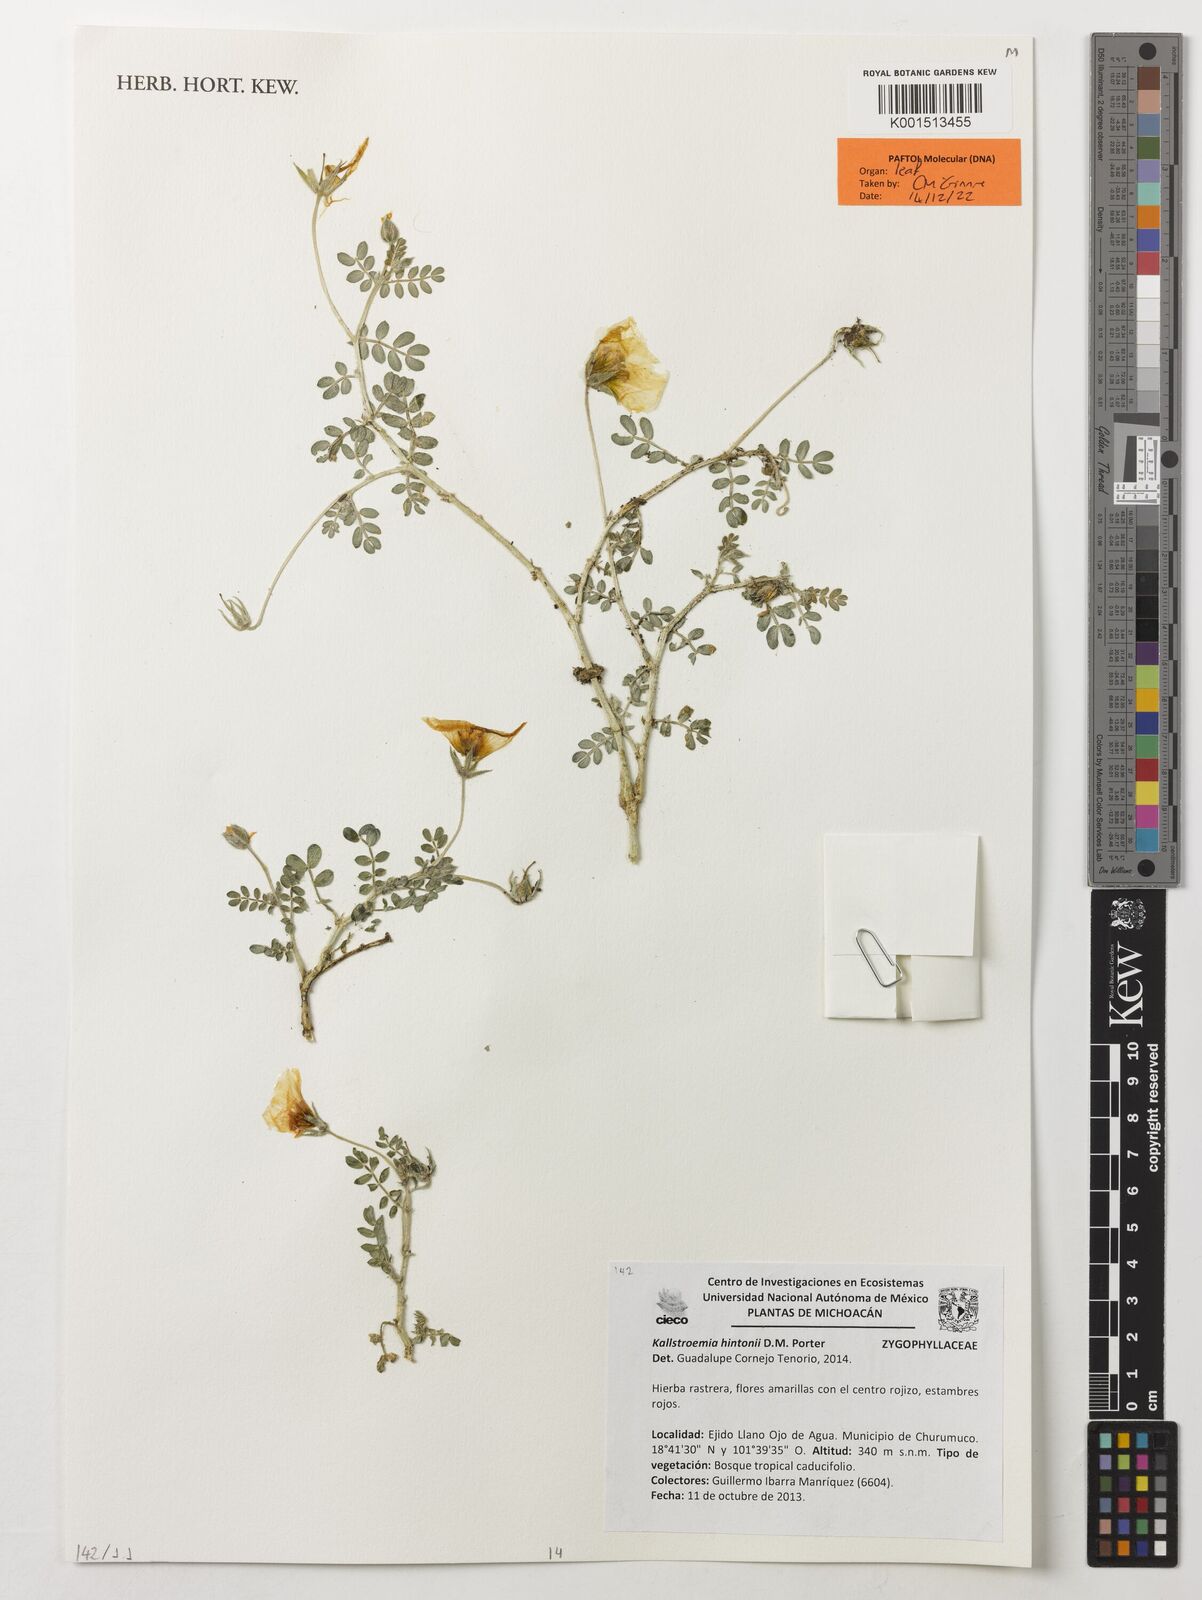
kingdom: Plantae
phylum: Tracheophyta
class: Magnoliopsida
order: Zygophyllales
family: Zygophyllaceae
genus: Kallstroemia
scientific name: Kallstroemia hintonii
